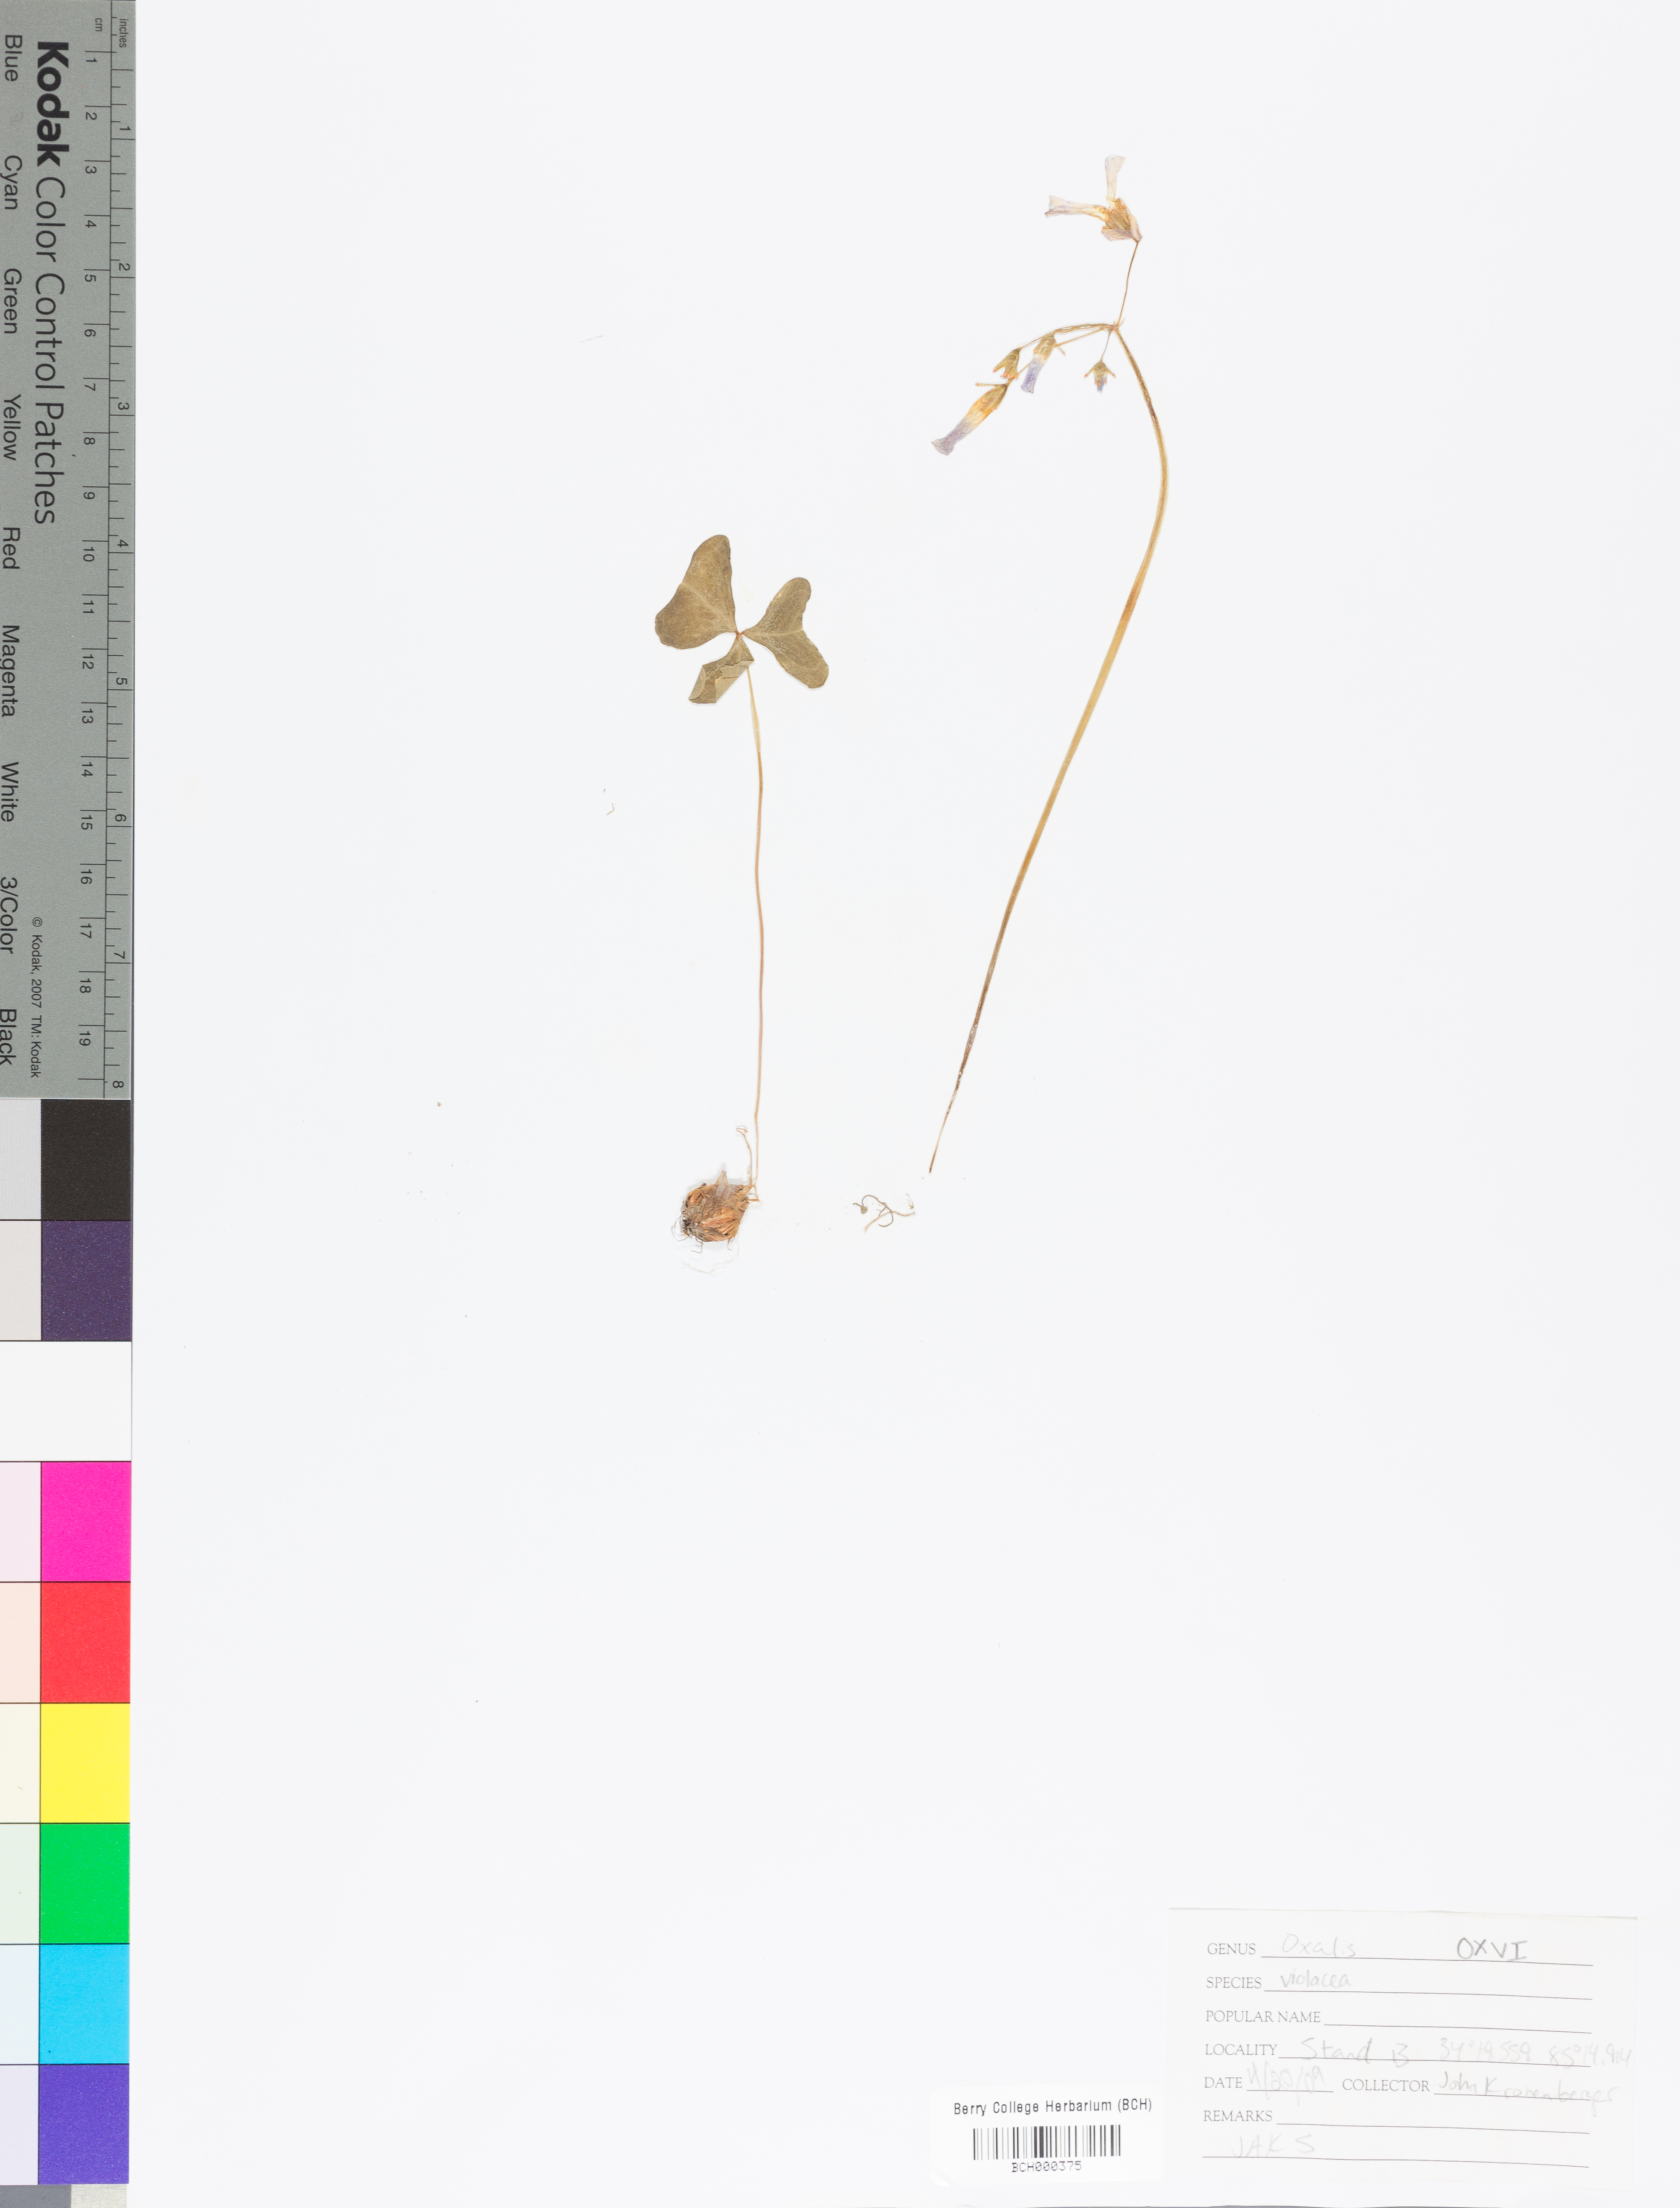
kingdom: Plantae
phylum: Tracheophyta
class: Magnoliopsida
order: Oxalidales
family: Oxalidaceae
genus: Oxalis
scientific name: Oxalis violacea
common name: Violet wood-sorrel
